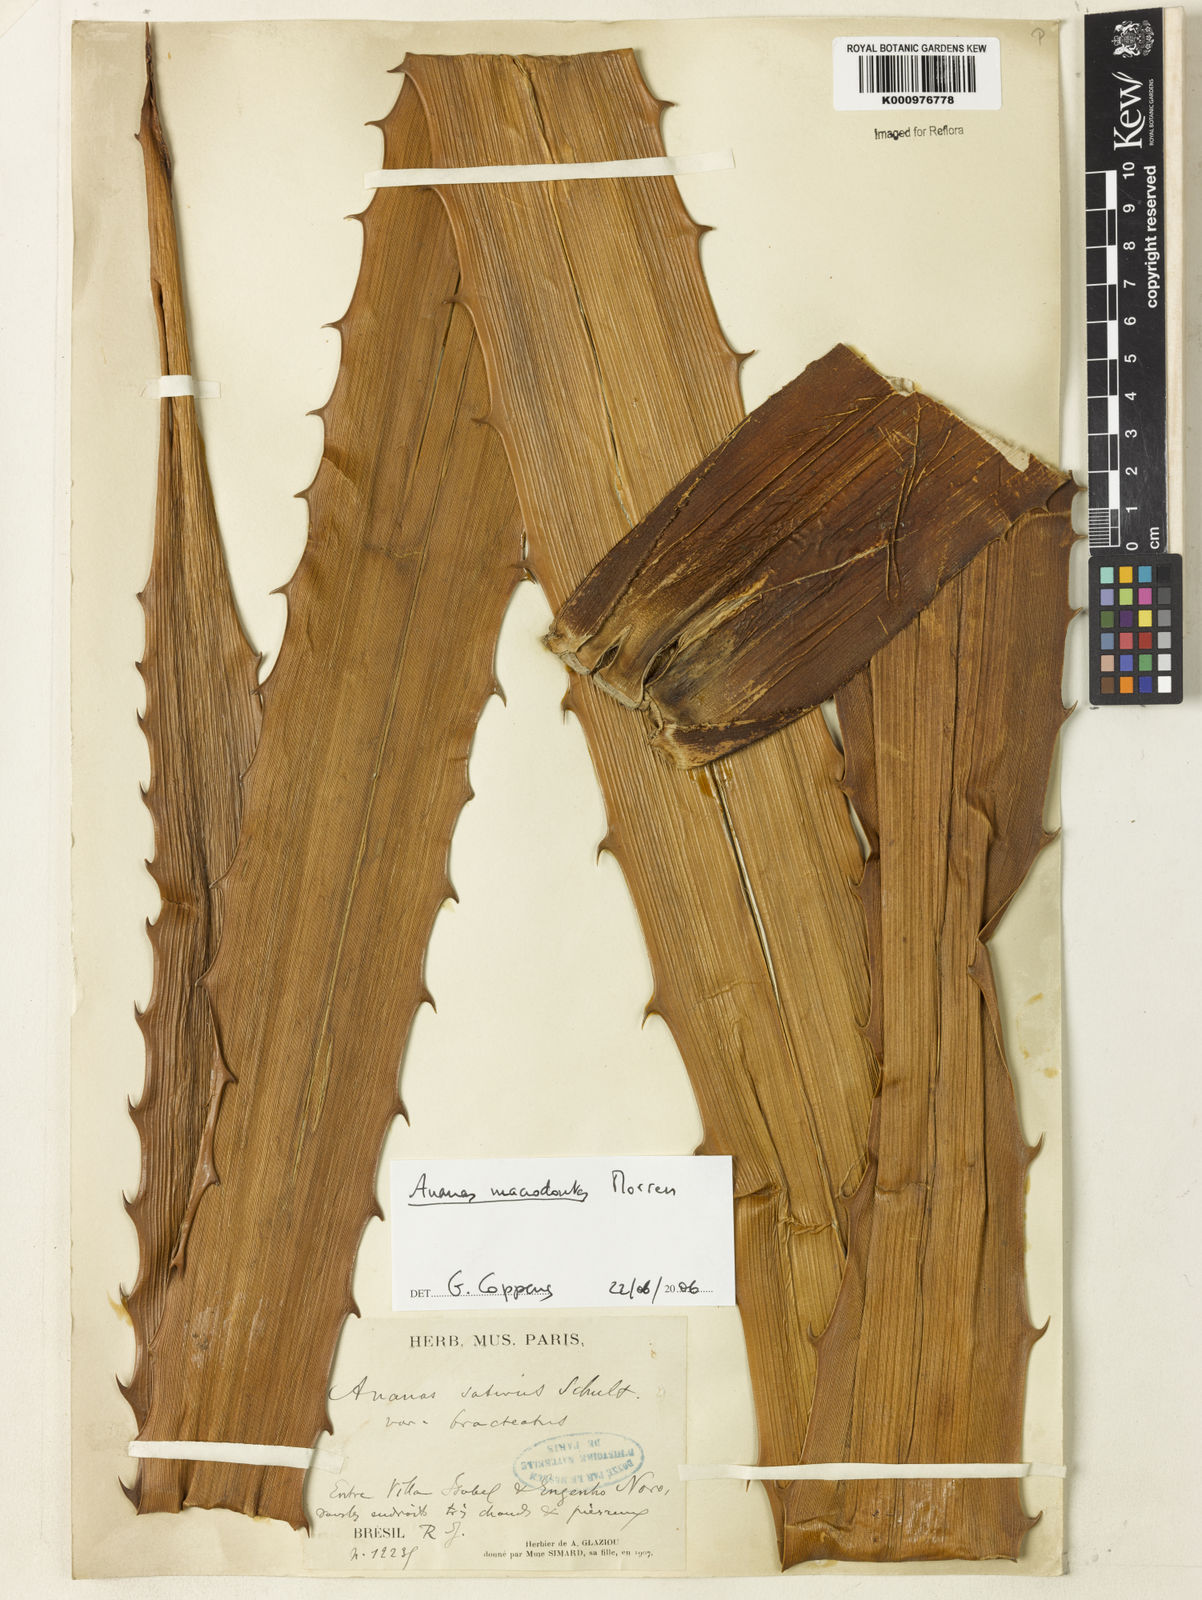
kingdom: Plantae
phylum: Tracheophyta
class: Liliopsida
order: Poales
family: Bromeliaceae
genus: Ananas
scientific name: Ananas macrodontes
